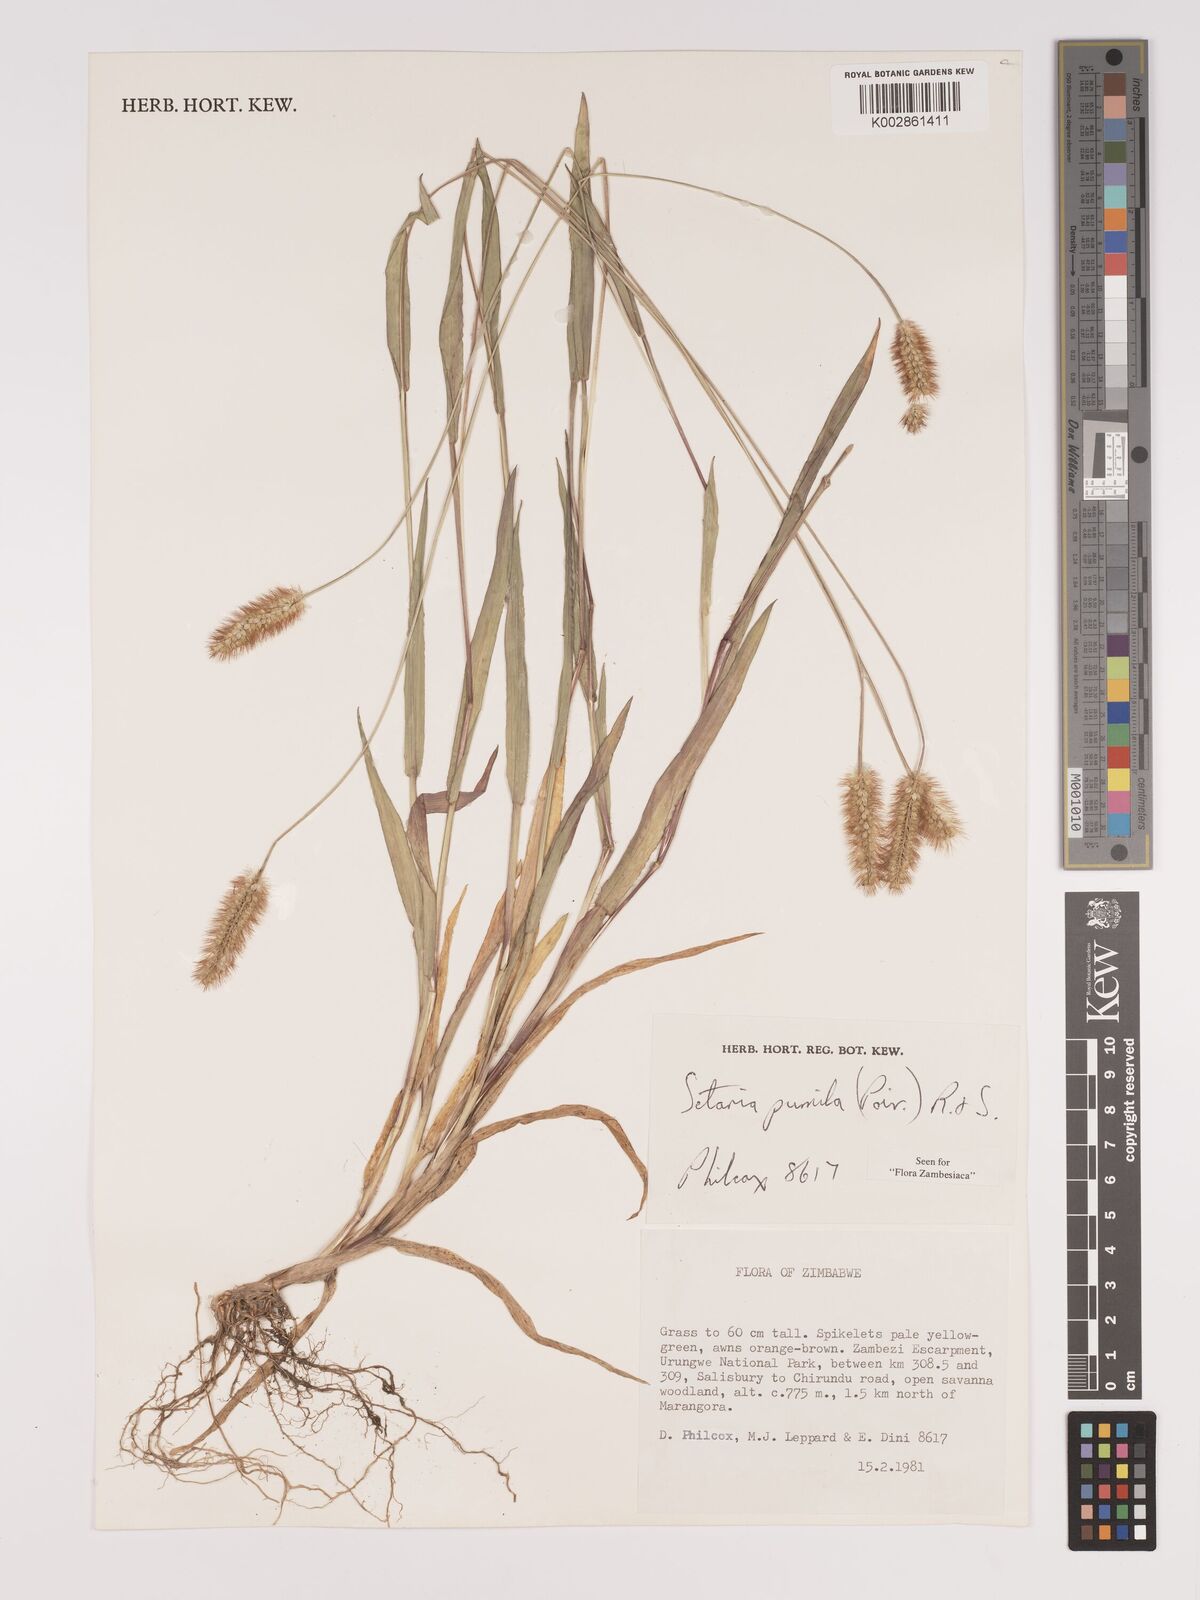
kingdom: Plantae
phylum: Tracheophyta
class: Liliopsida
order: Poales
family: Poaceae
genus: Setaria
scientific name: Setaria pumila
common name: Yellow bristle-grass
